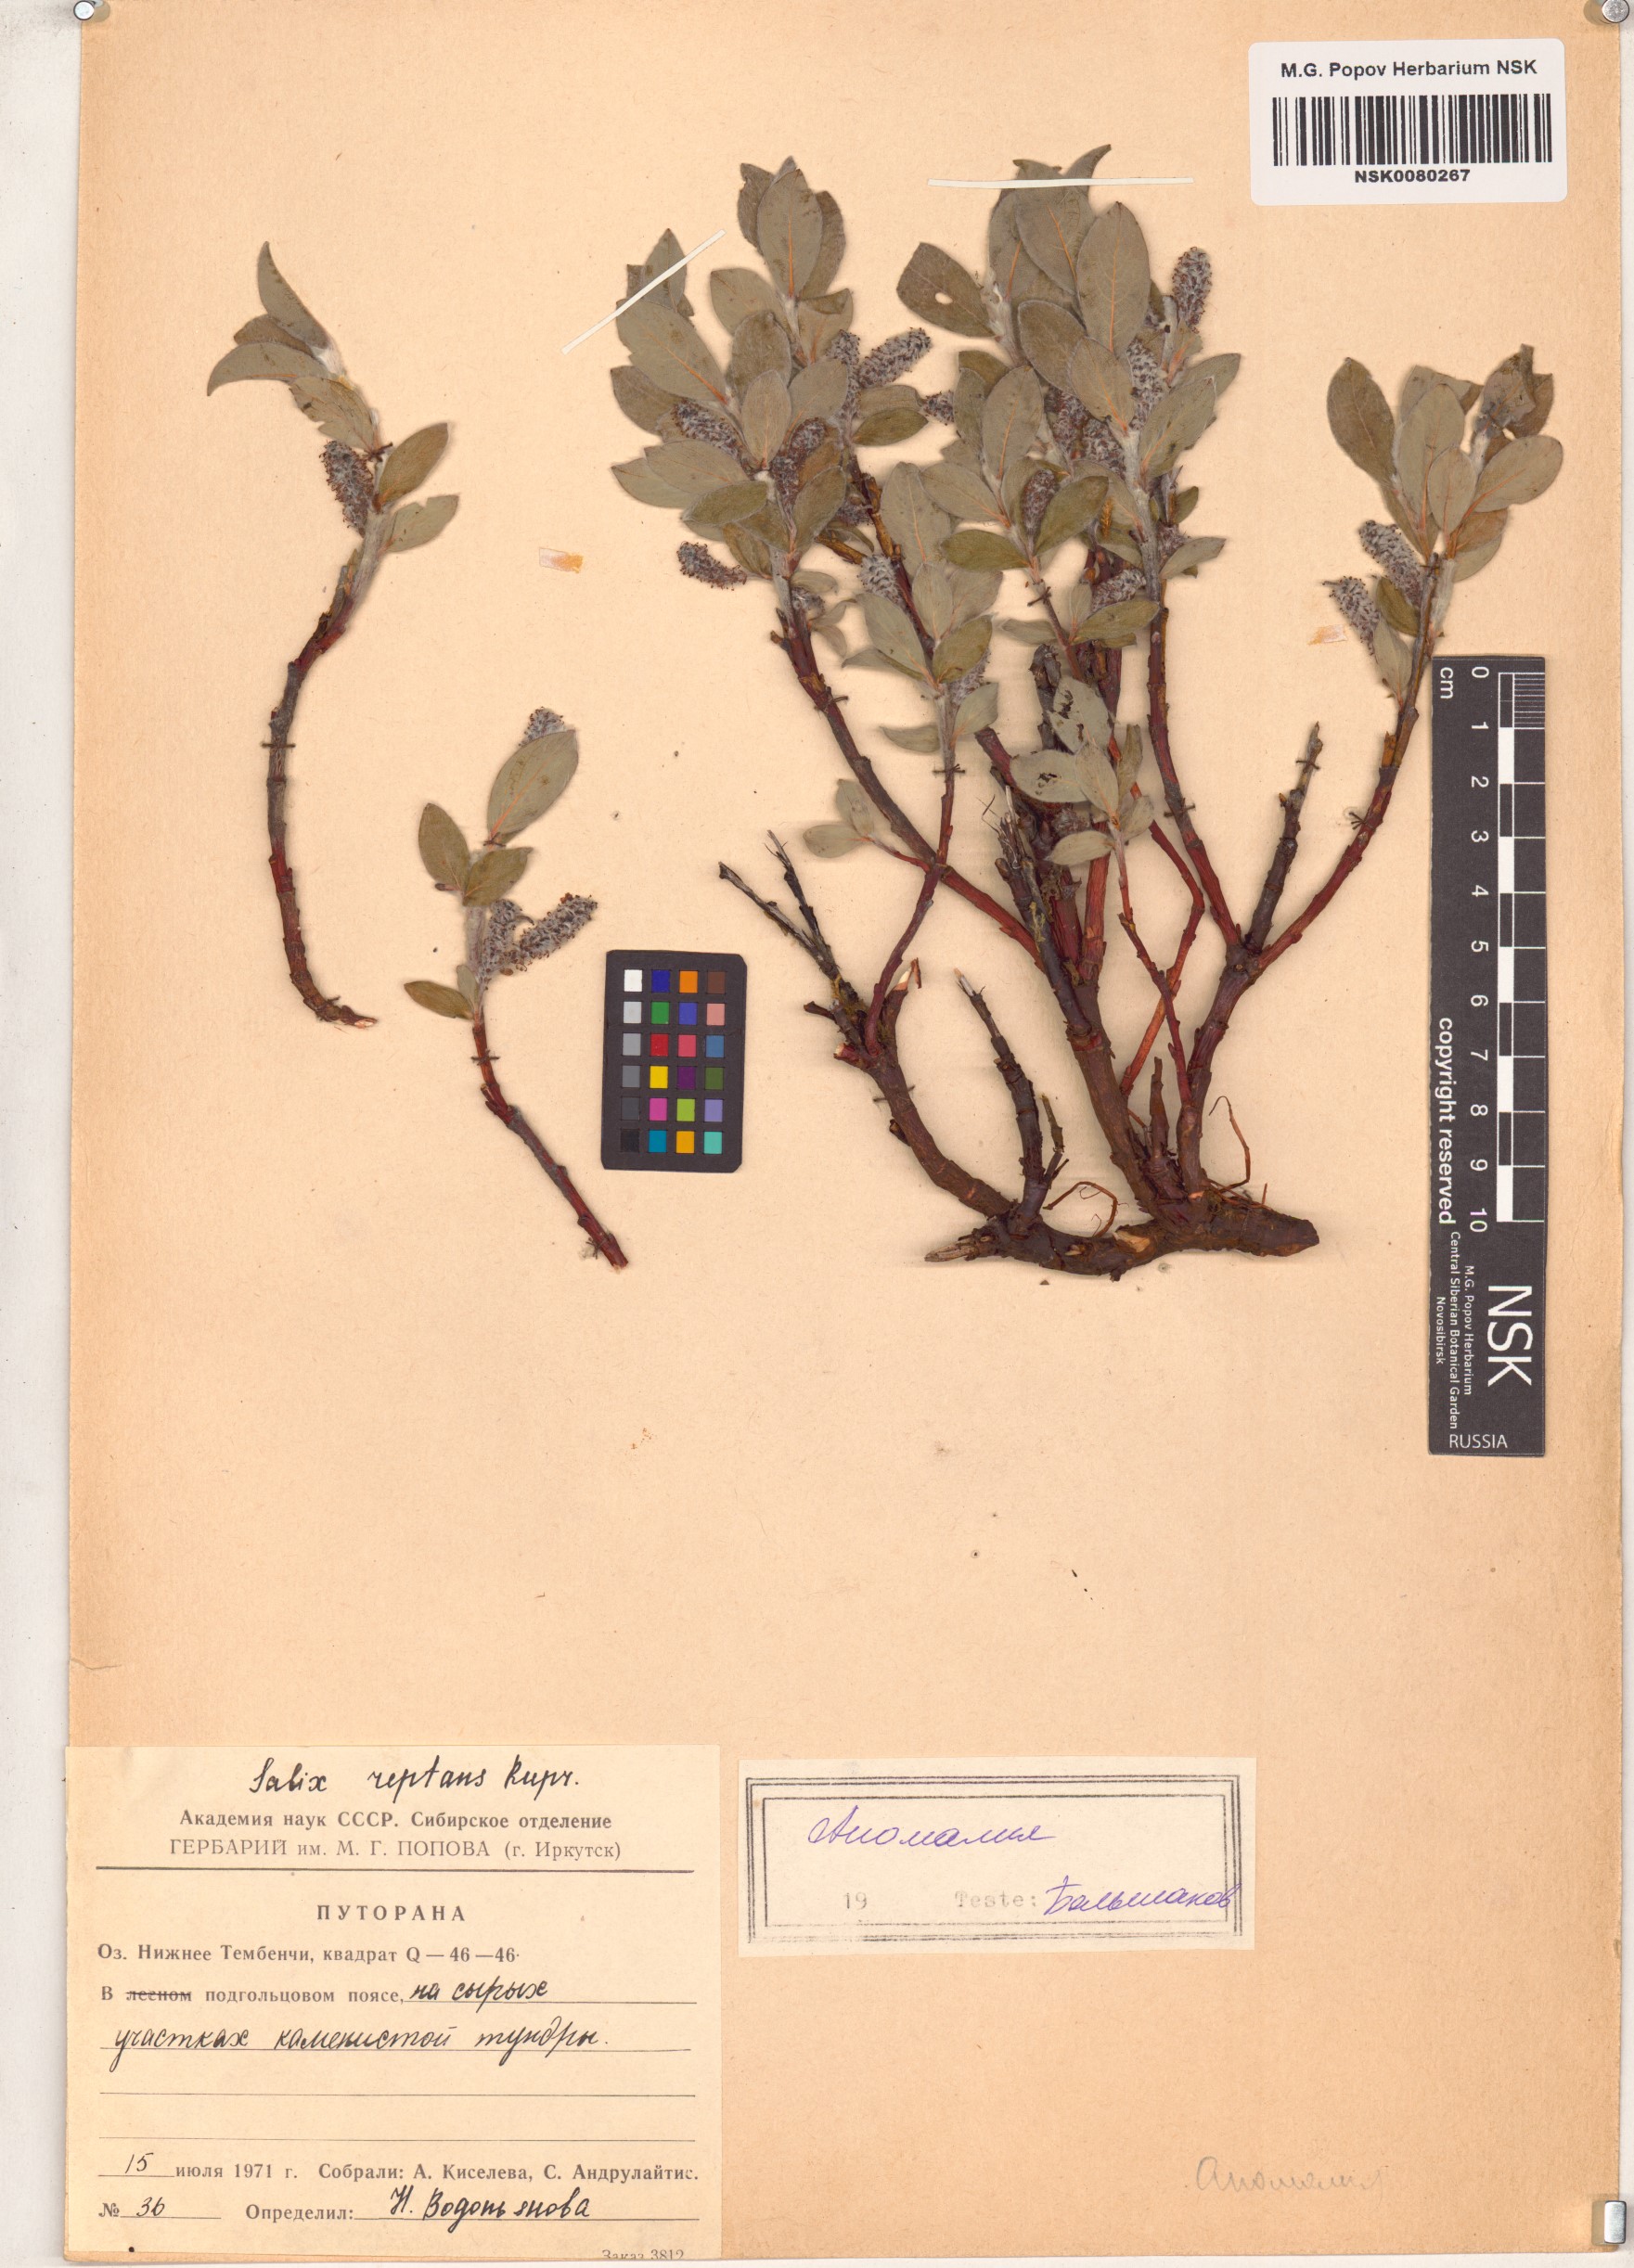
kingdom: Plantae
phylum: Tracheophyta
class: Magnoliopsida
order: Malpighiales
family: Salicaceae
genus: Salix
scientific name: Salix reptans
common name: Arctic creeping willow
